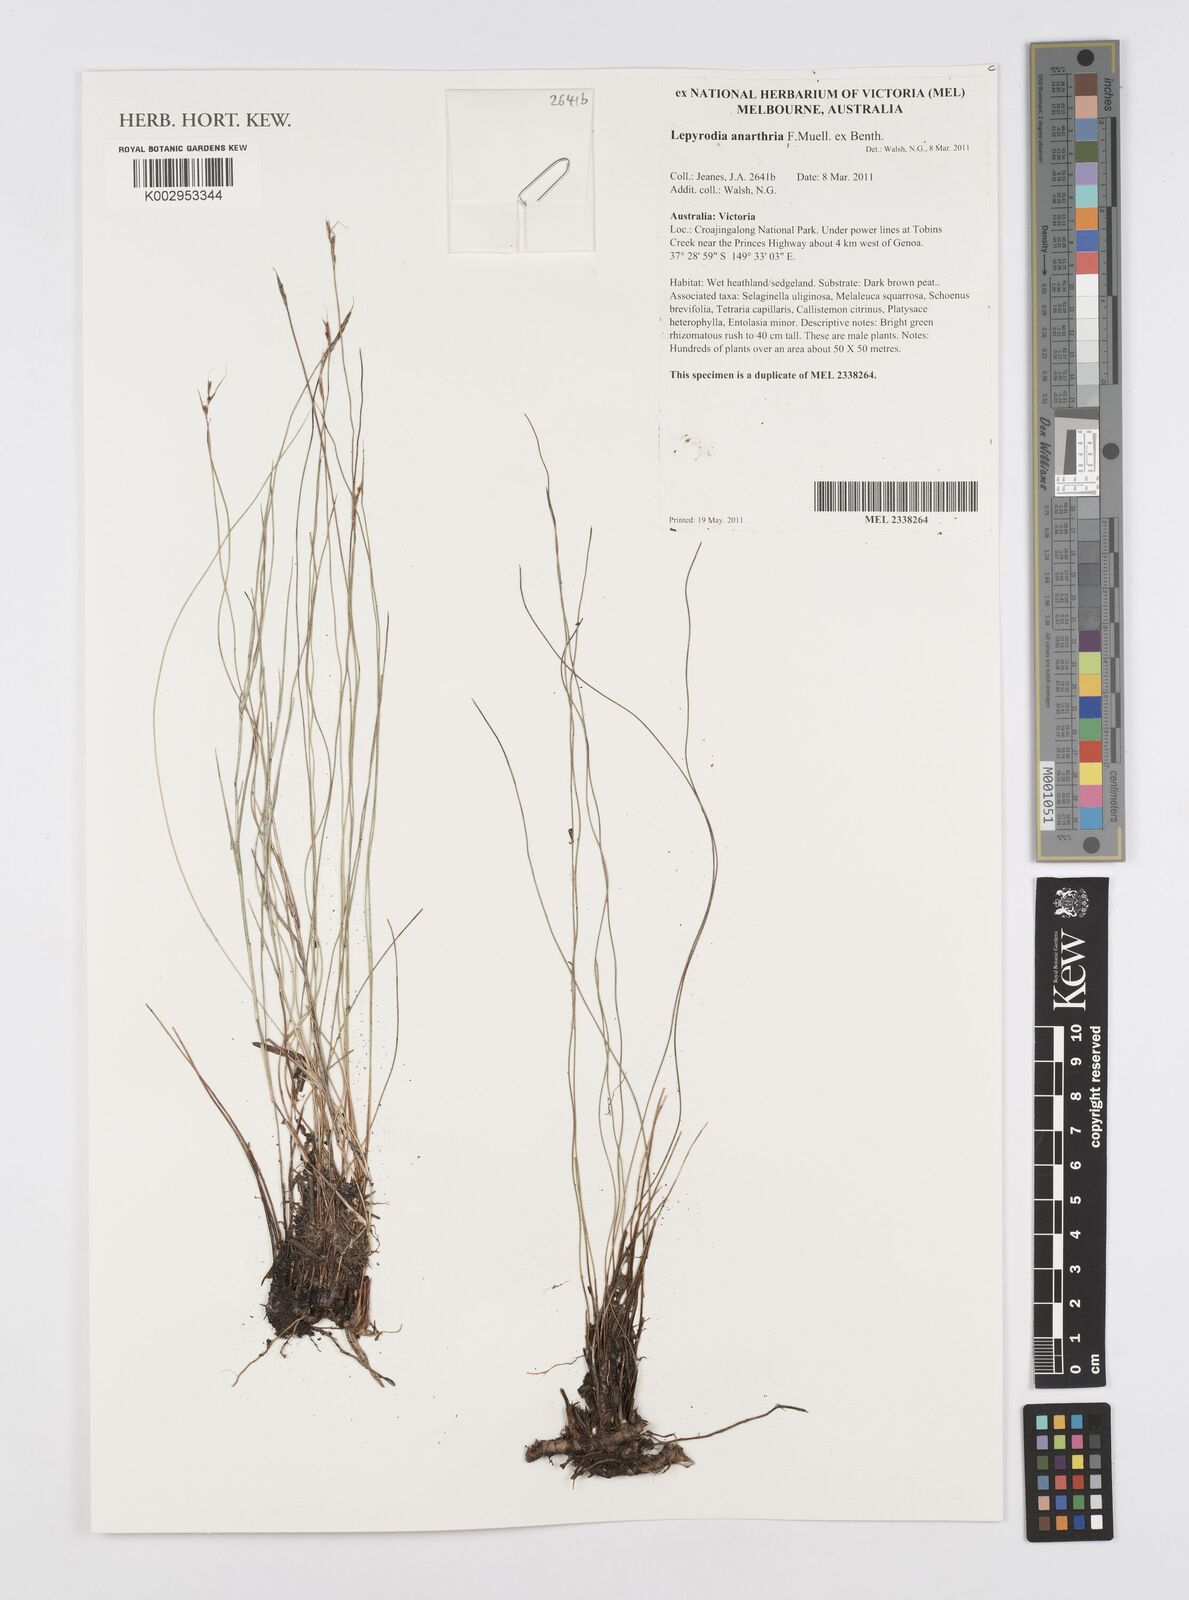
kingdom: Plantae
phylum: Tracheophyta
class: Liliopsida
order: Poales
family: Restionaceae
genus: Lepyrodia
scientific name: Lepyrodia anarthria
